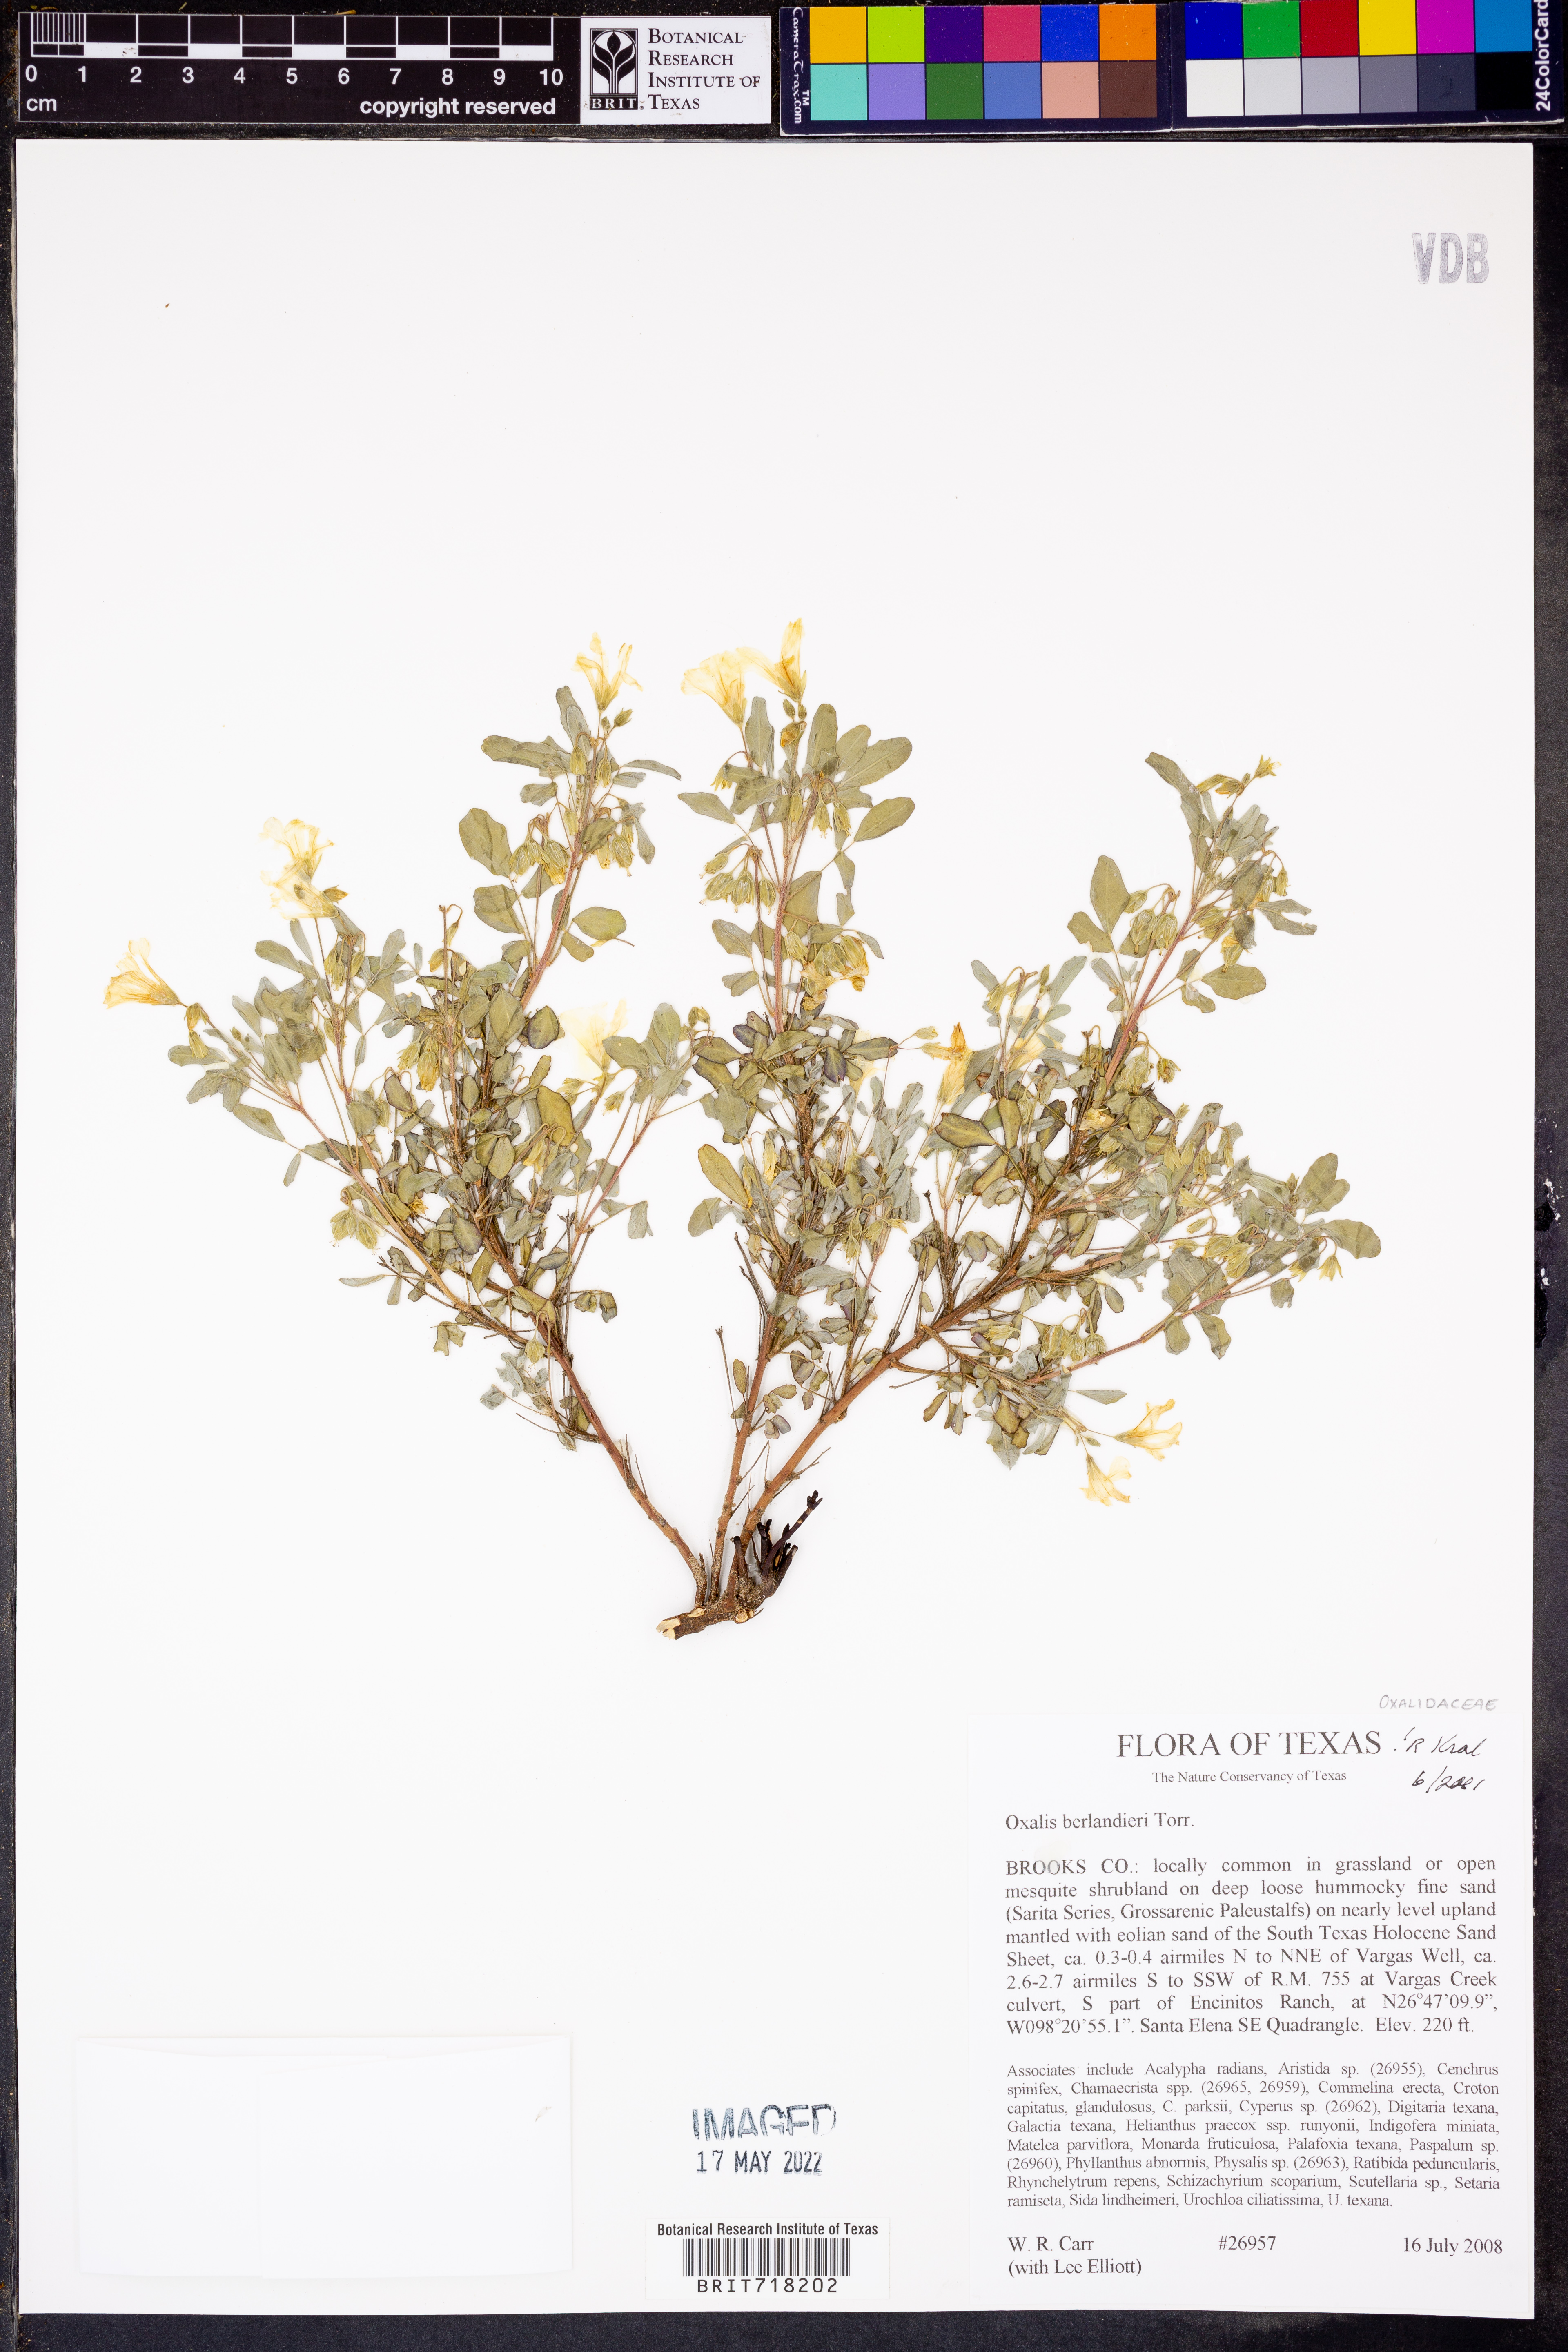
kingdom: Plantae
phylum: Tracheophyta
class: Magnoliopsida
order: Oxalidales
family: Oxalidaceae
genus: Oxalis
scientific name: Oxalis frutescens
